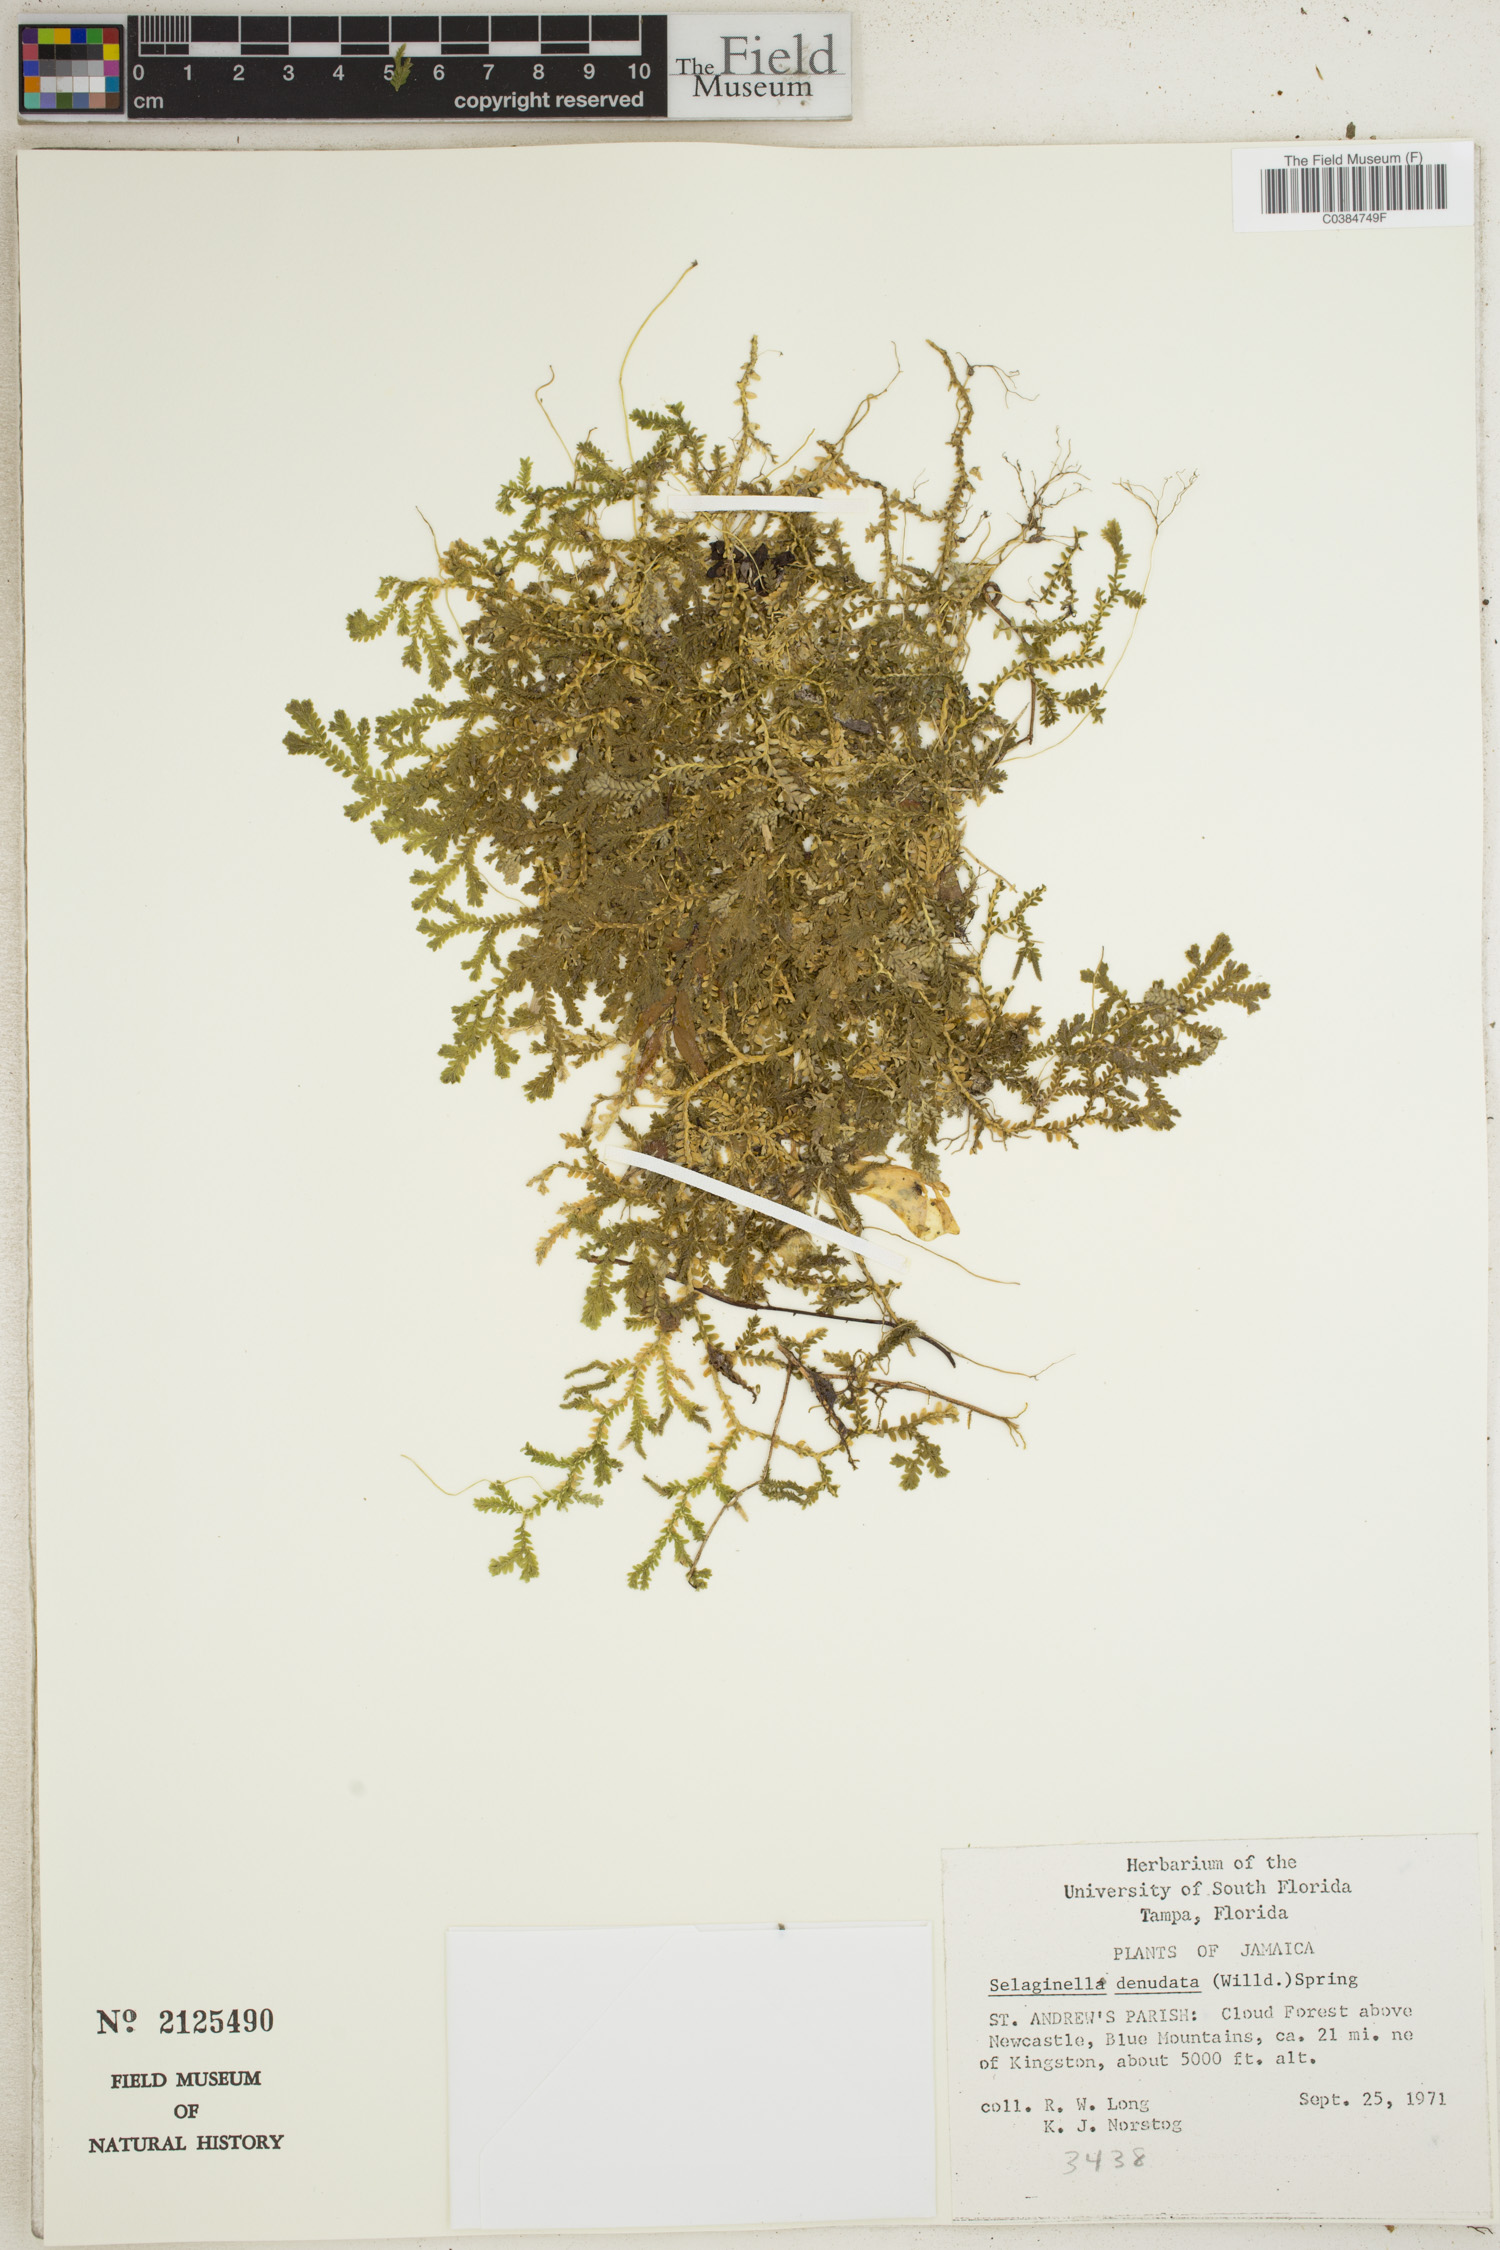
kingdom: Plantae
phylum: Tracheophyta
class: Lycopodiopsida
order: Selaginellales
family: Selaginellaceae
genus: Selaginella
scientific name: Selaginella denudata
